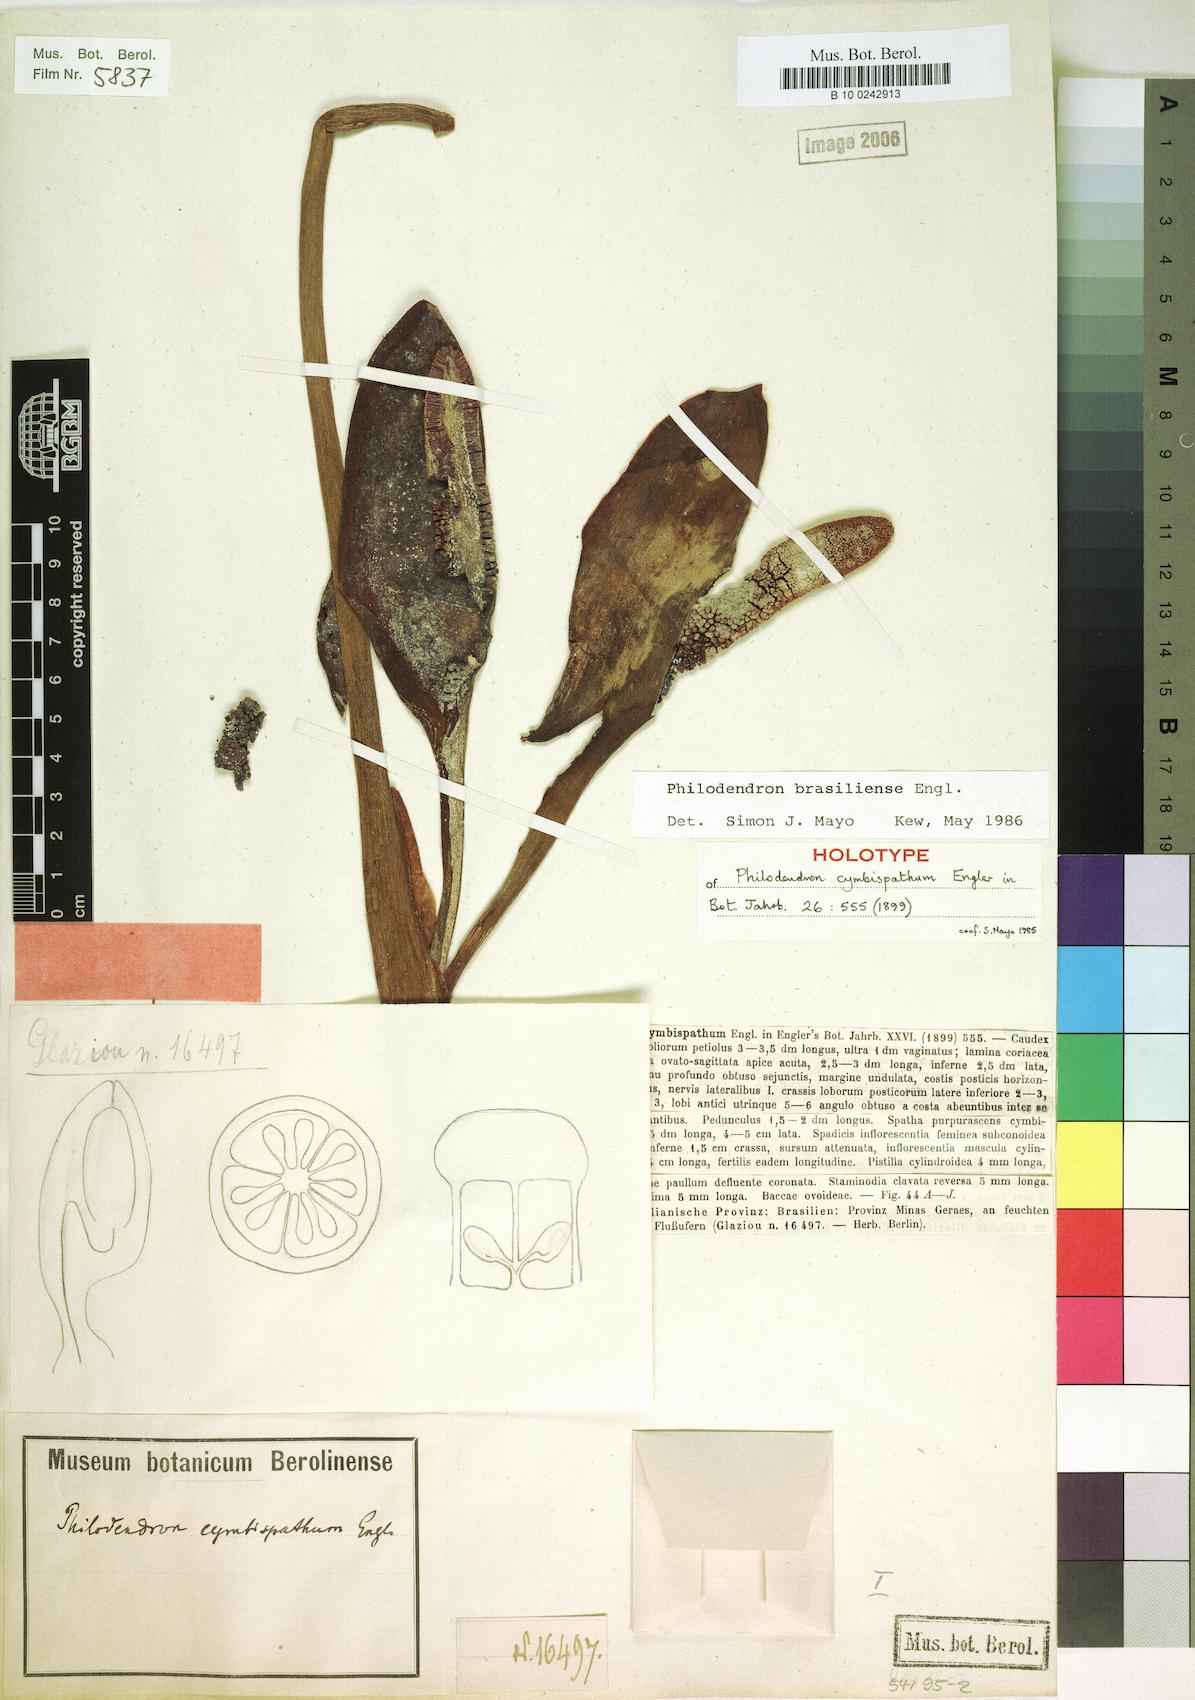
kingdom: Plantae
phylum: Tracheophyta
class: Liliopsida
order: Alismatales
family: Araceae
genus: Thaumatophyllum
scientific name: Thaumatophyllum brasiliense
